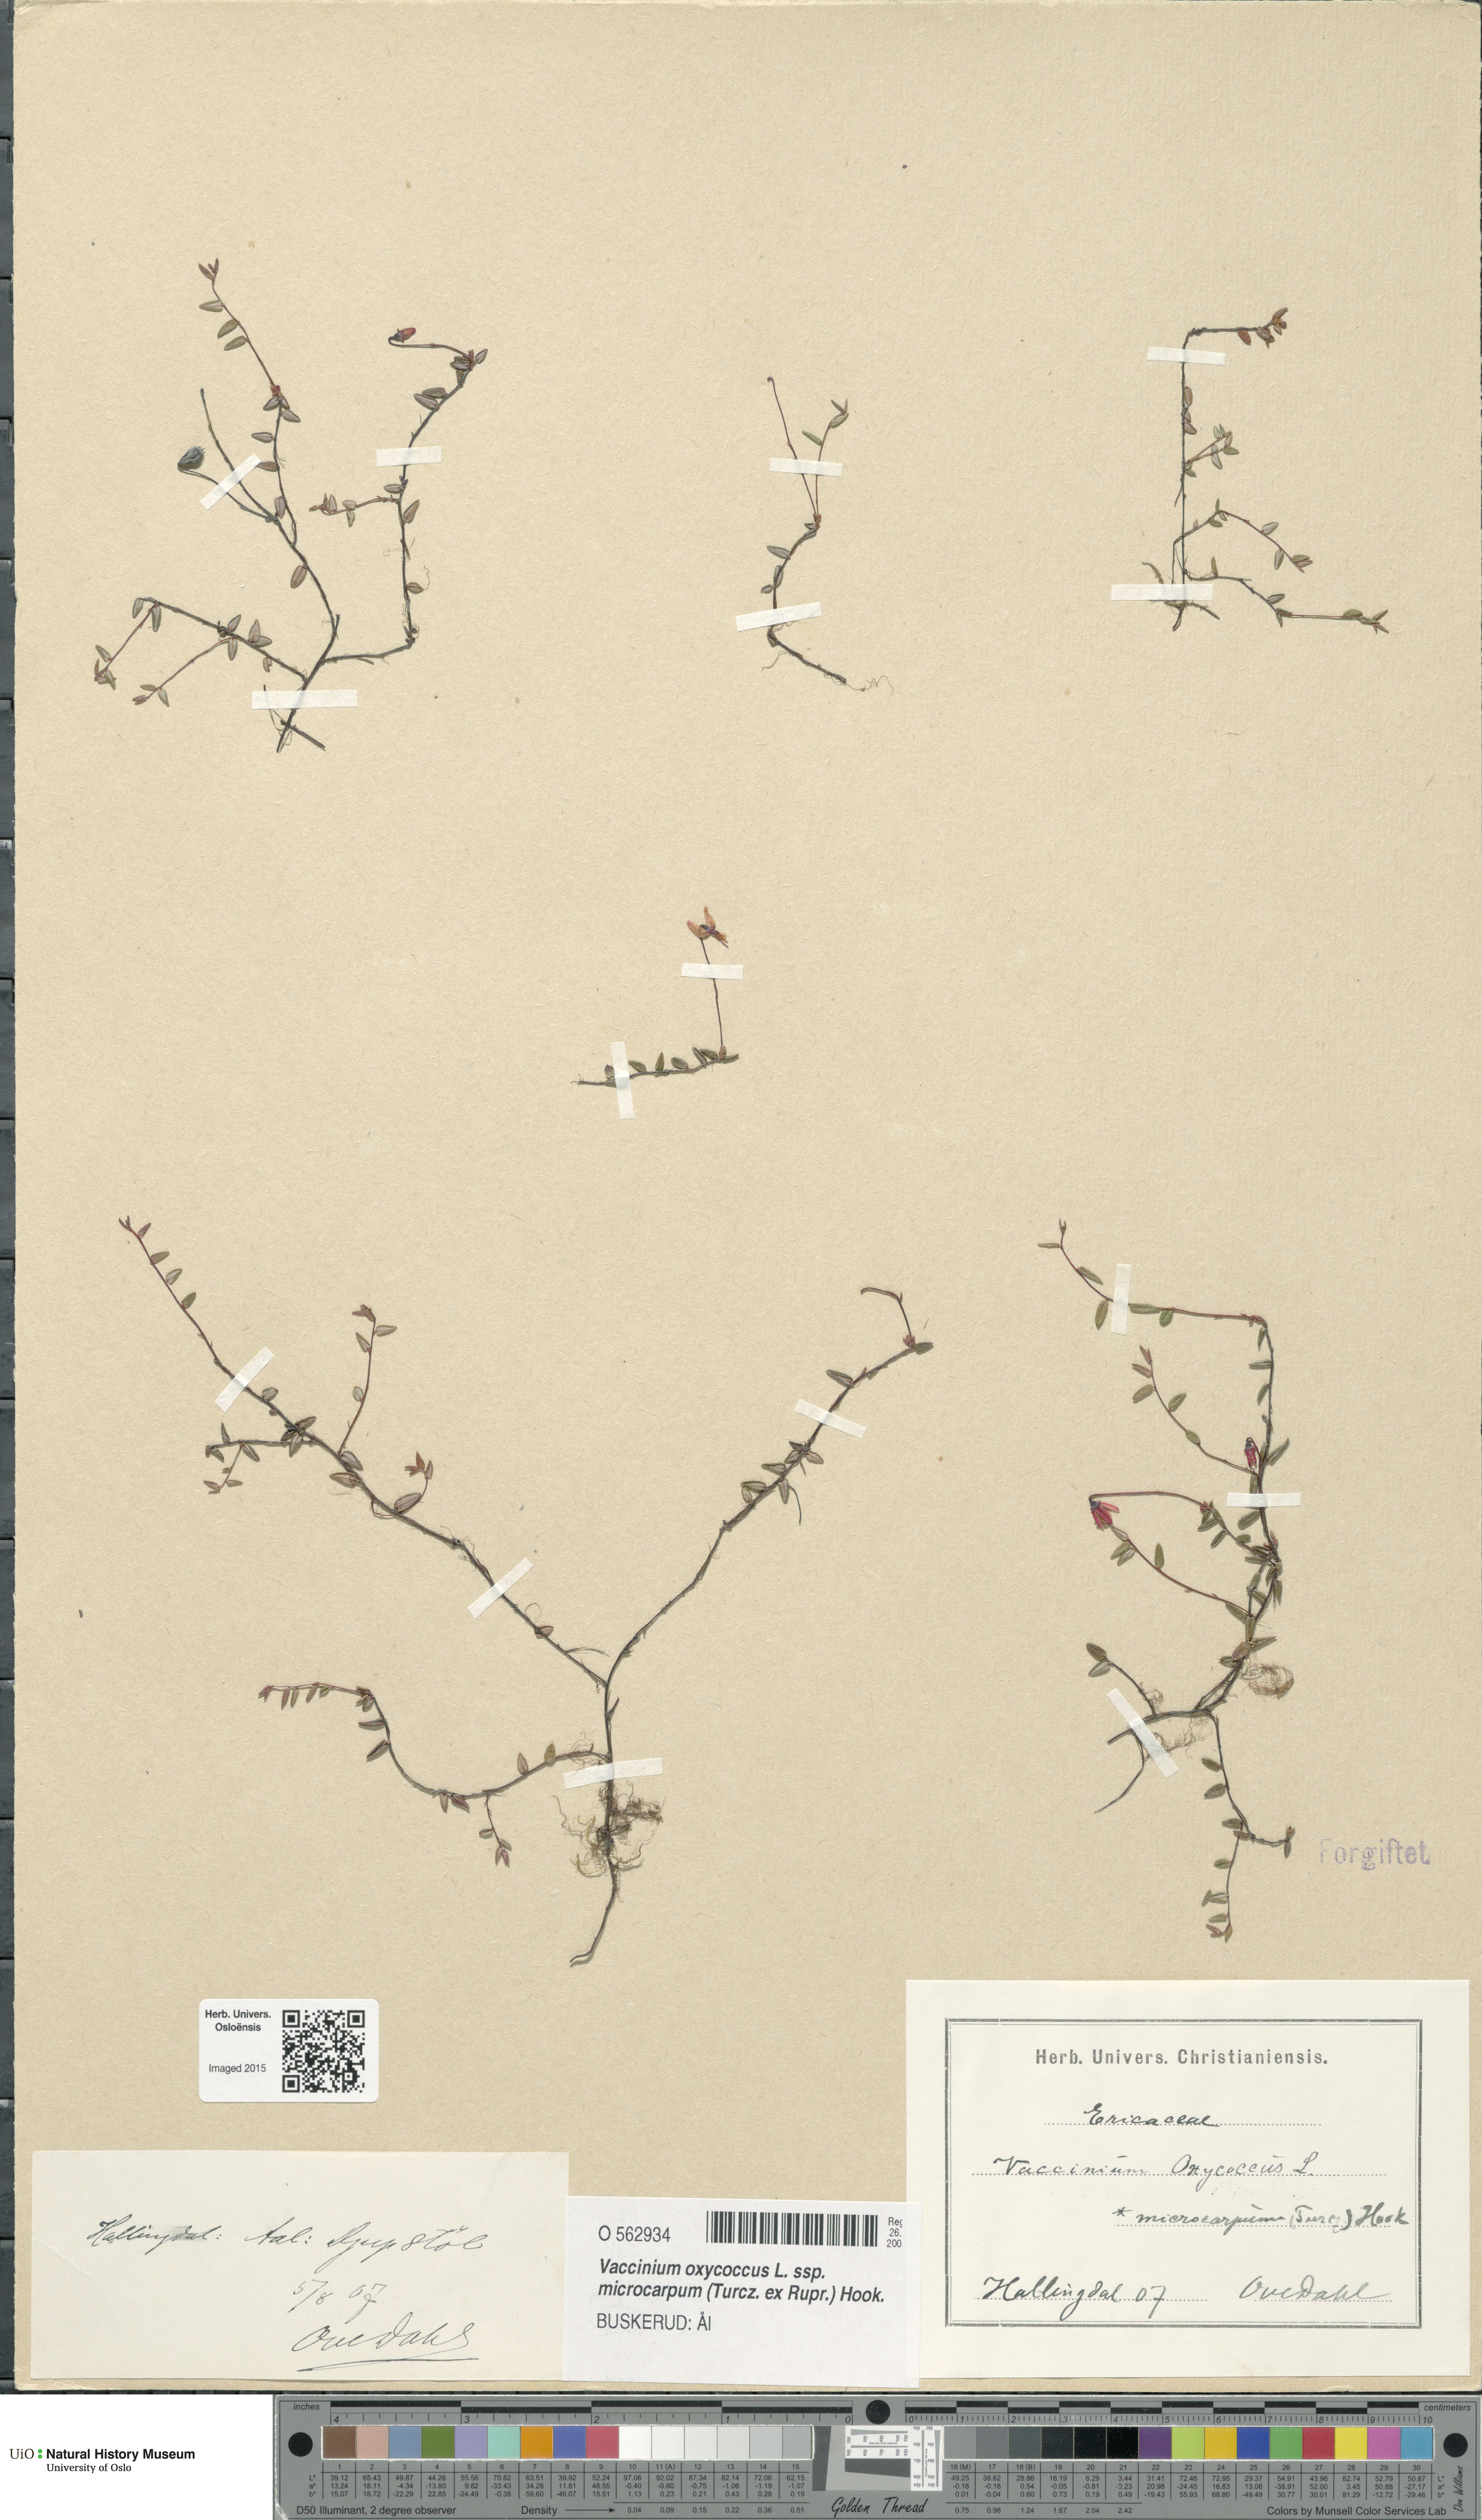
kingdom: Plantae
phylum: Tracheophyta
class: Magnoliopsida
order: Ericales
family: Ericaceae
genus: Vaccinium
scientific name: Vaccinium microcarpum
